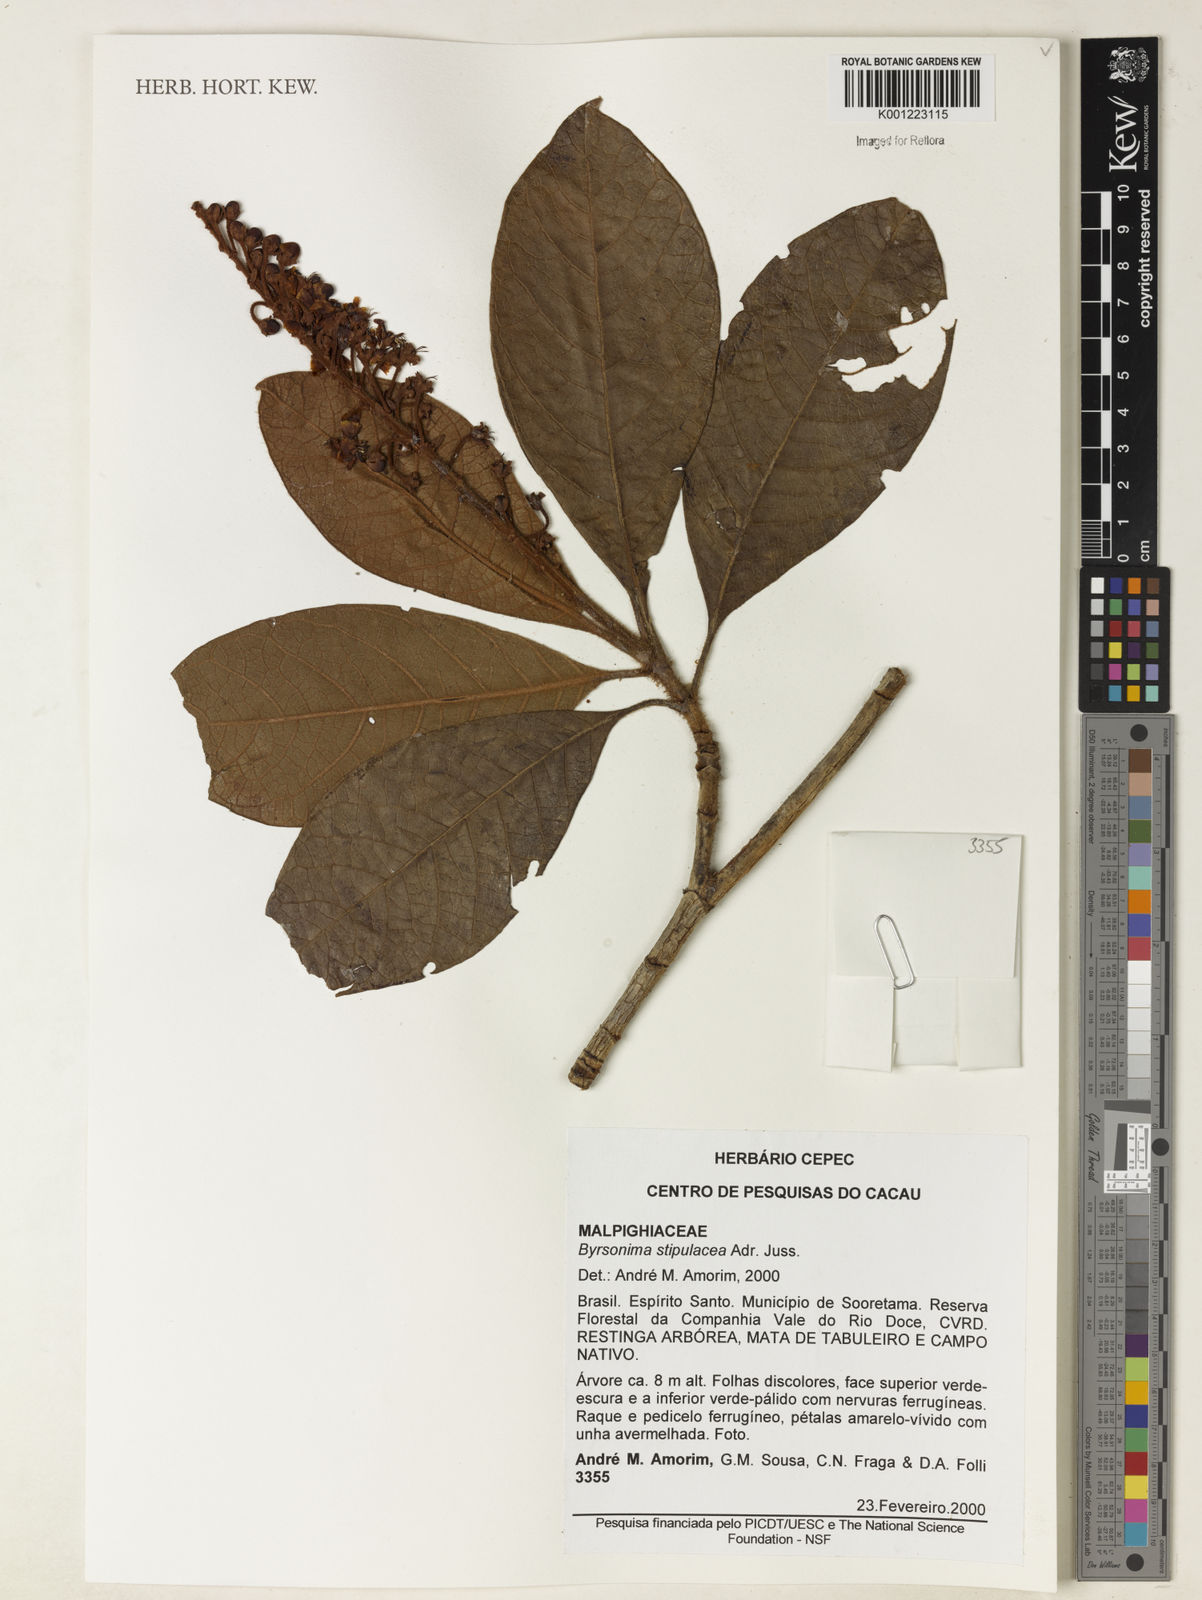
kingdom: Plantae
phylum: Tracheophyta
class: Magnoliopsida
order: Malpighiales
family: Malpighiaceae
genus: Byrsonima
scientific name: Byrsonima stipulacea
